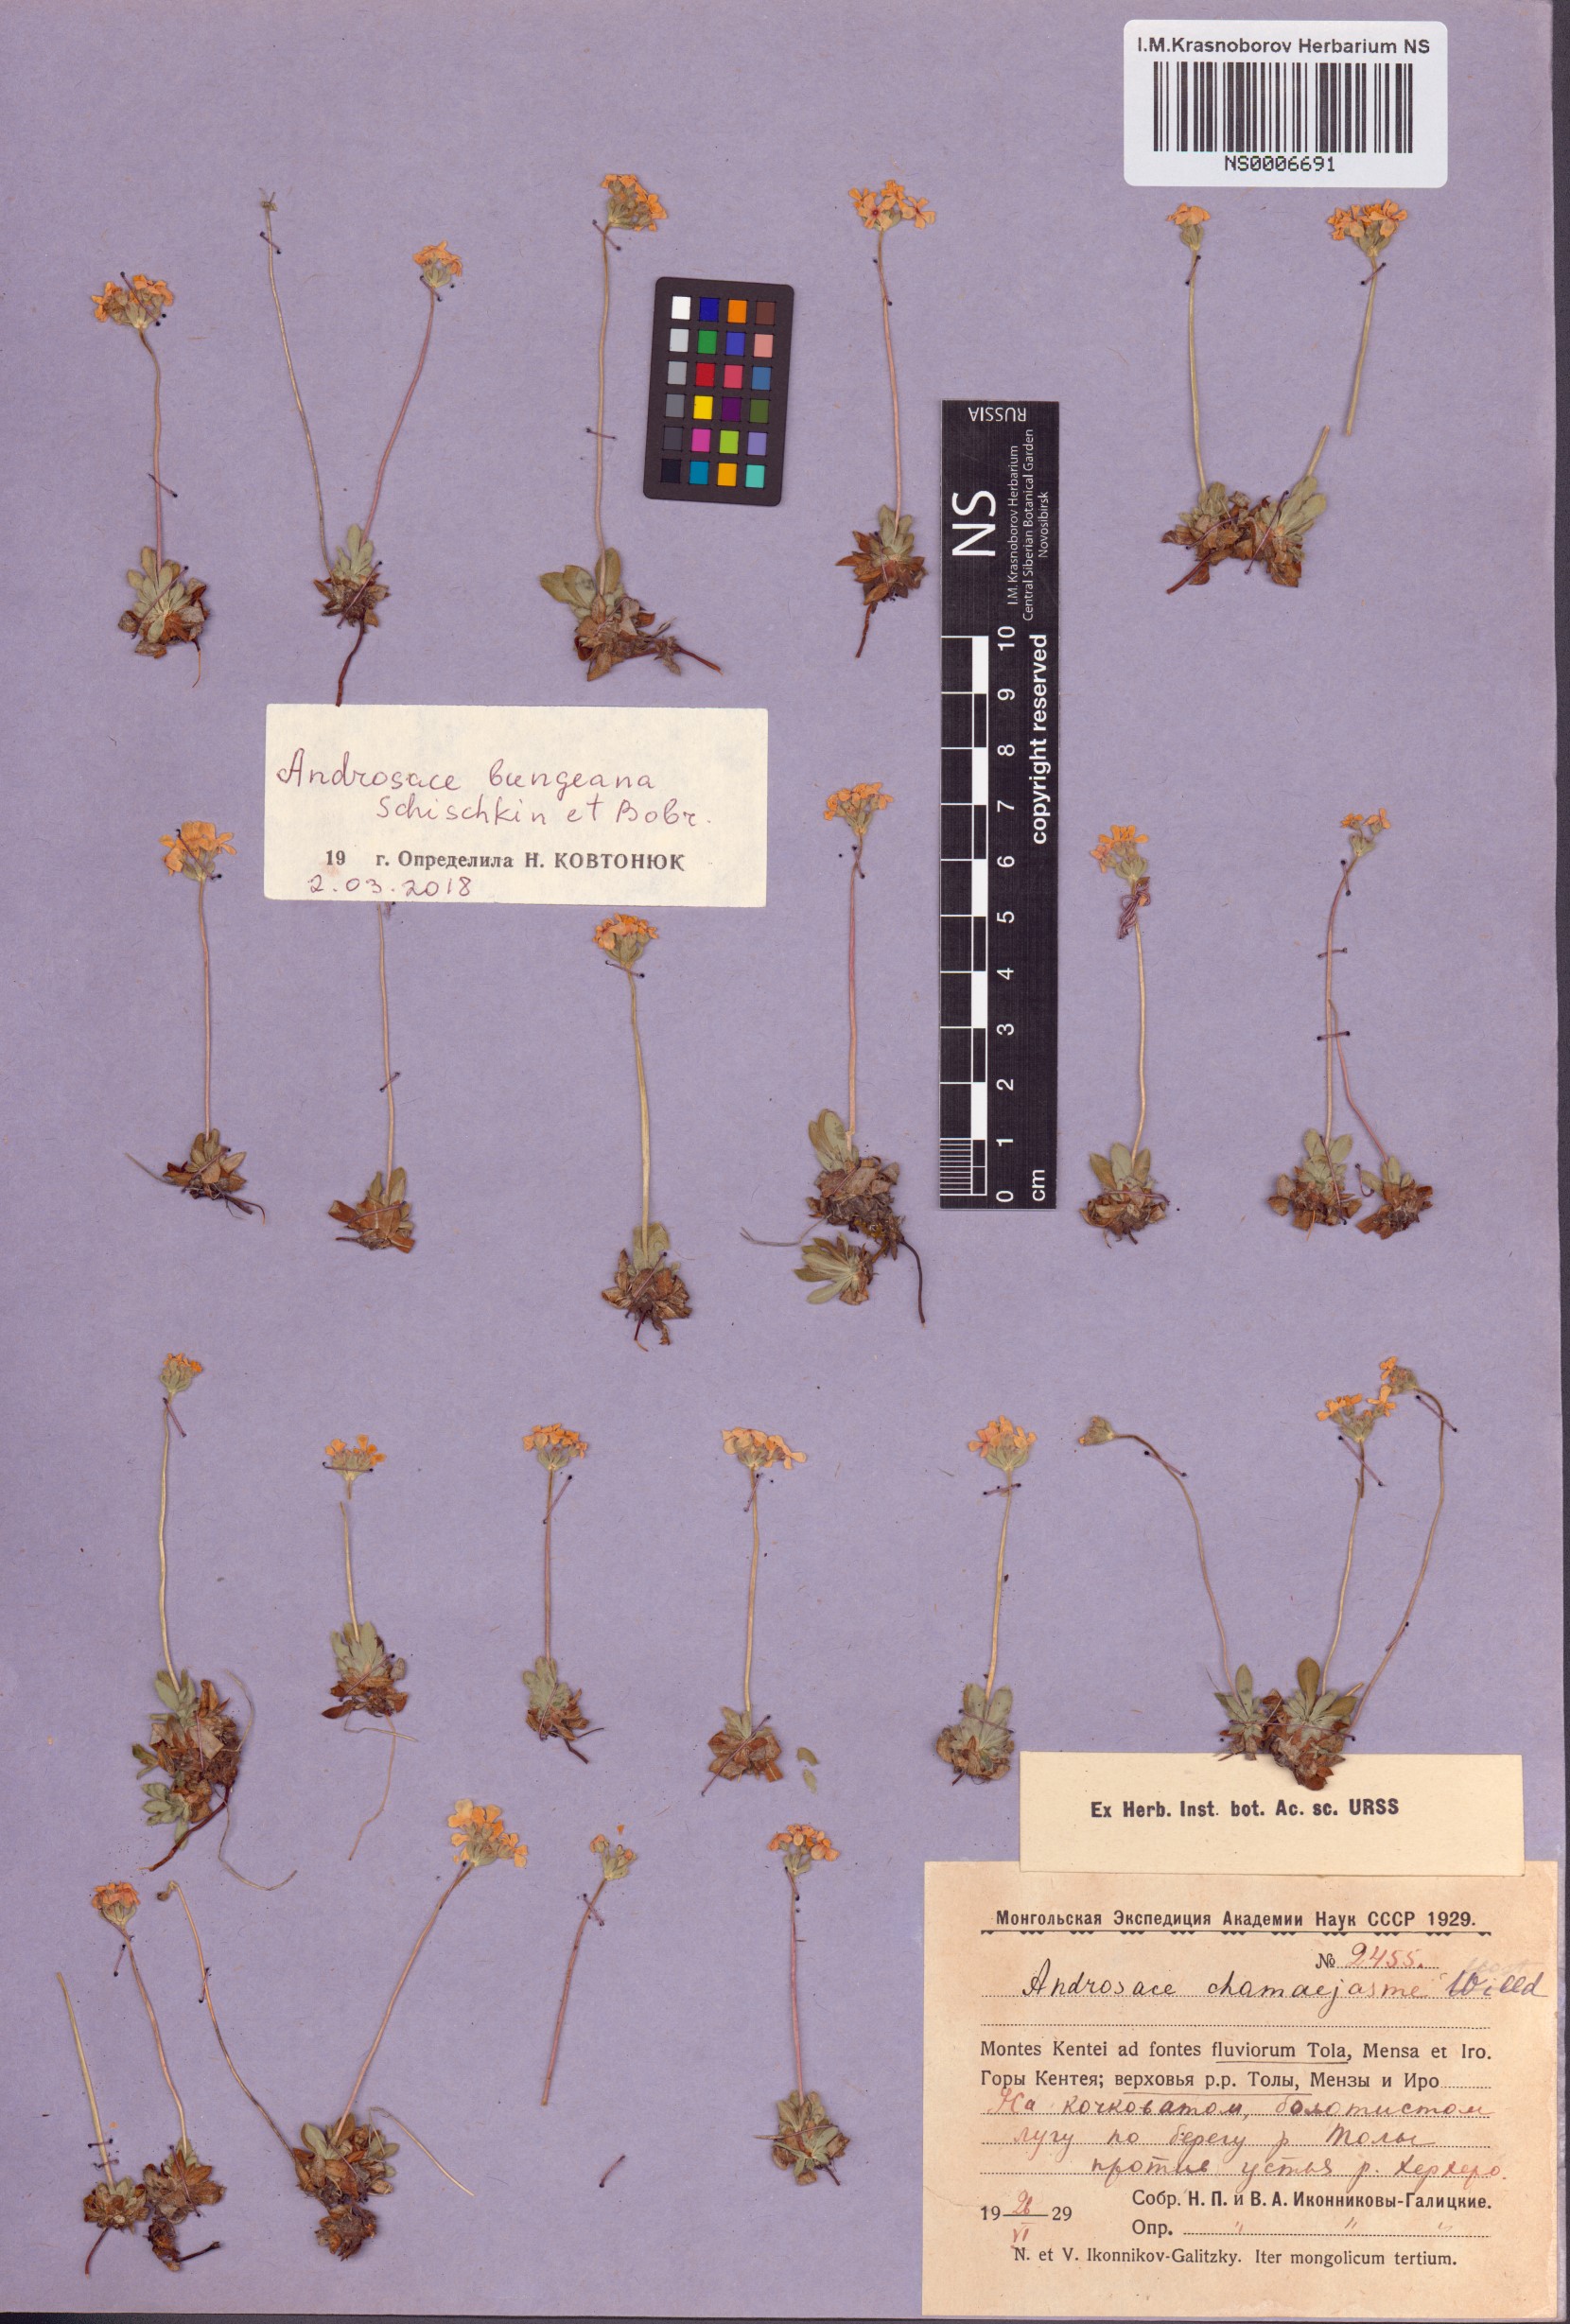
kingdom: Plantae
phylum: Tracheophyta
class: Magnoliopsida
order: Ericales
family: Primulaceae
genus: Androsace
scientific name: Androsace bungeana
